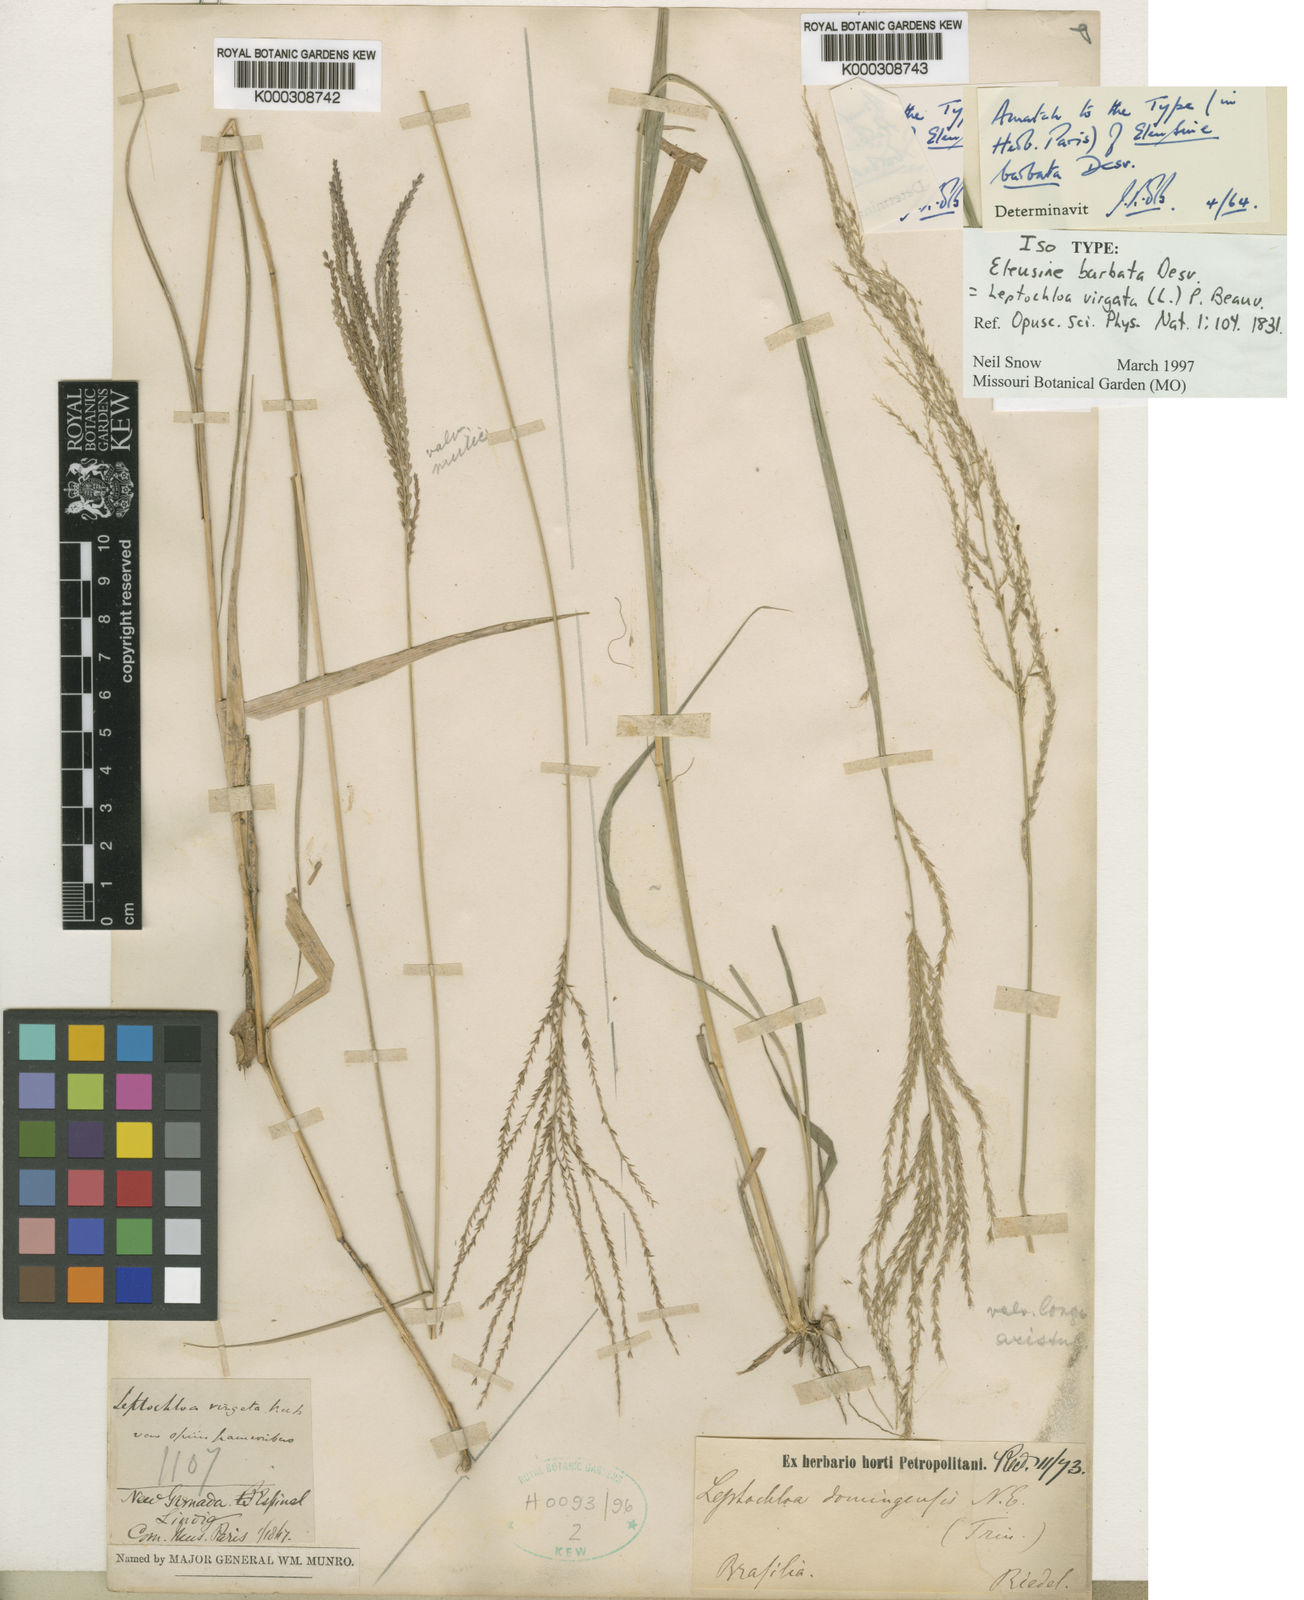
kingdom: Plantae
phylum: Tracheophyta
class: Liliopsida
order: Poales
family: Poaceae
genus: Leptochloa
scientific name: Leptochloa virgata
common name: Tropical sprangletop
